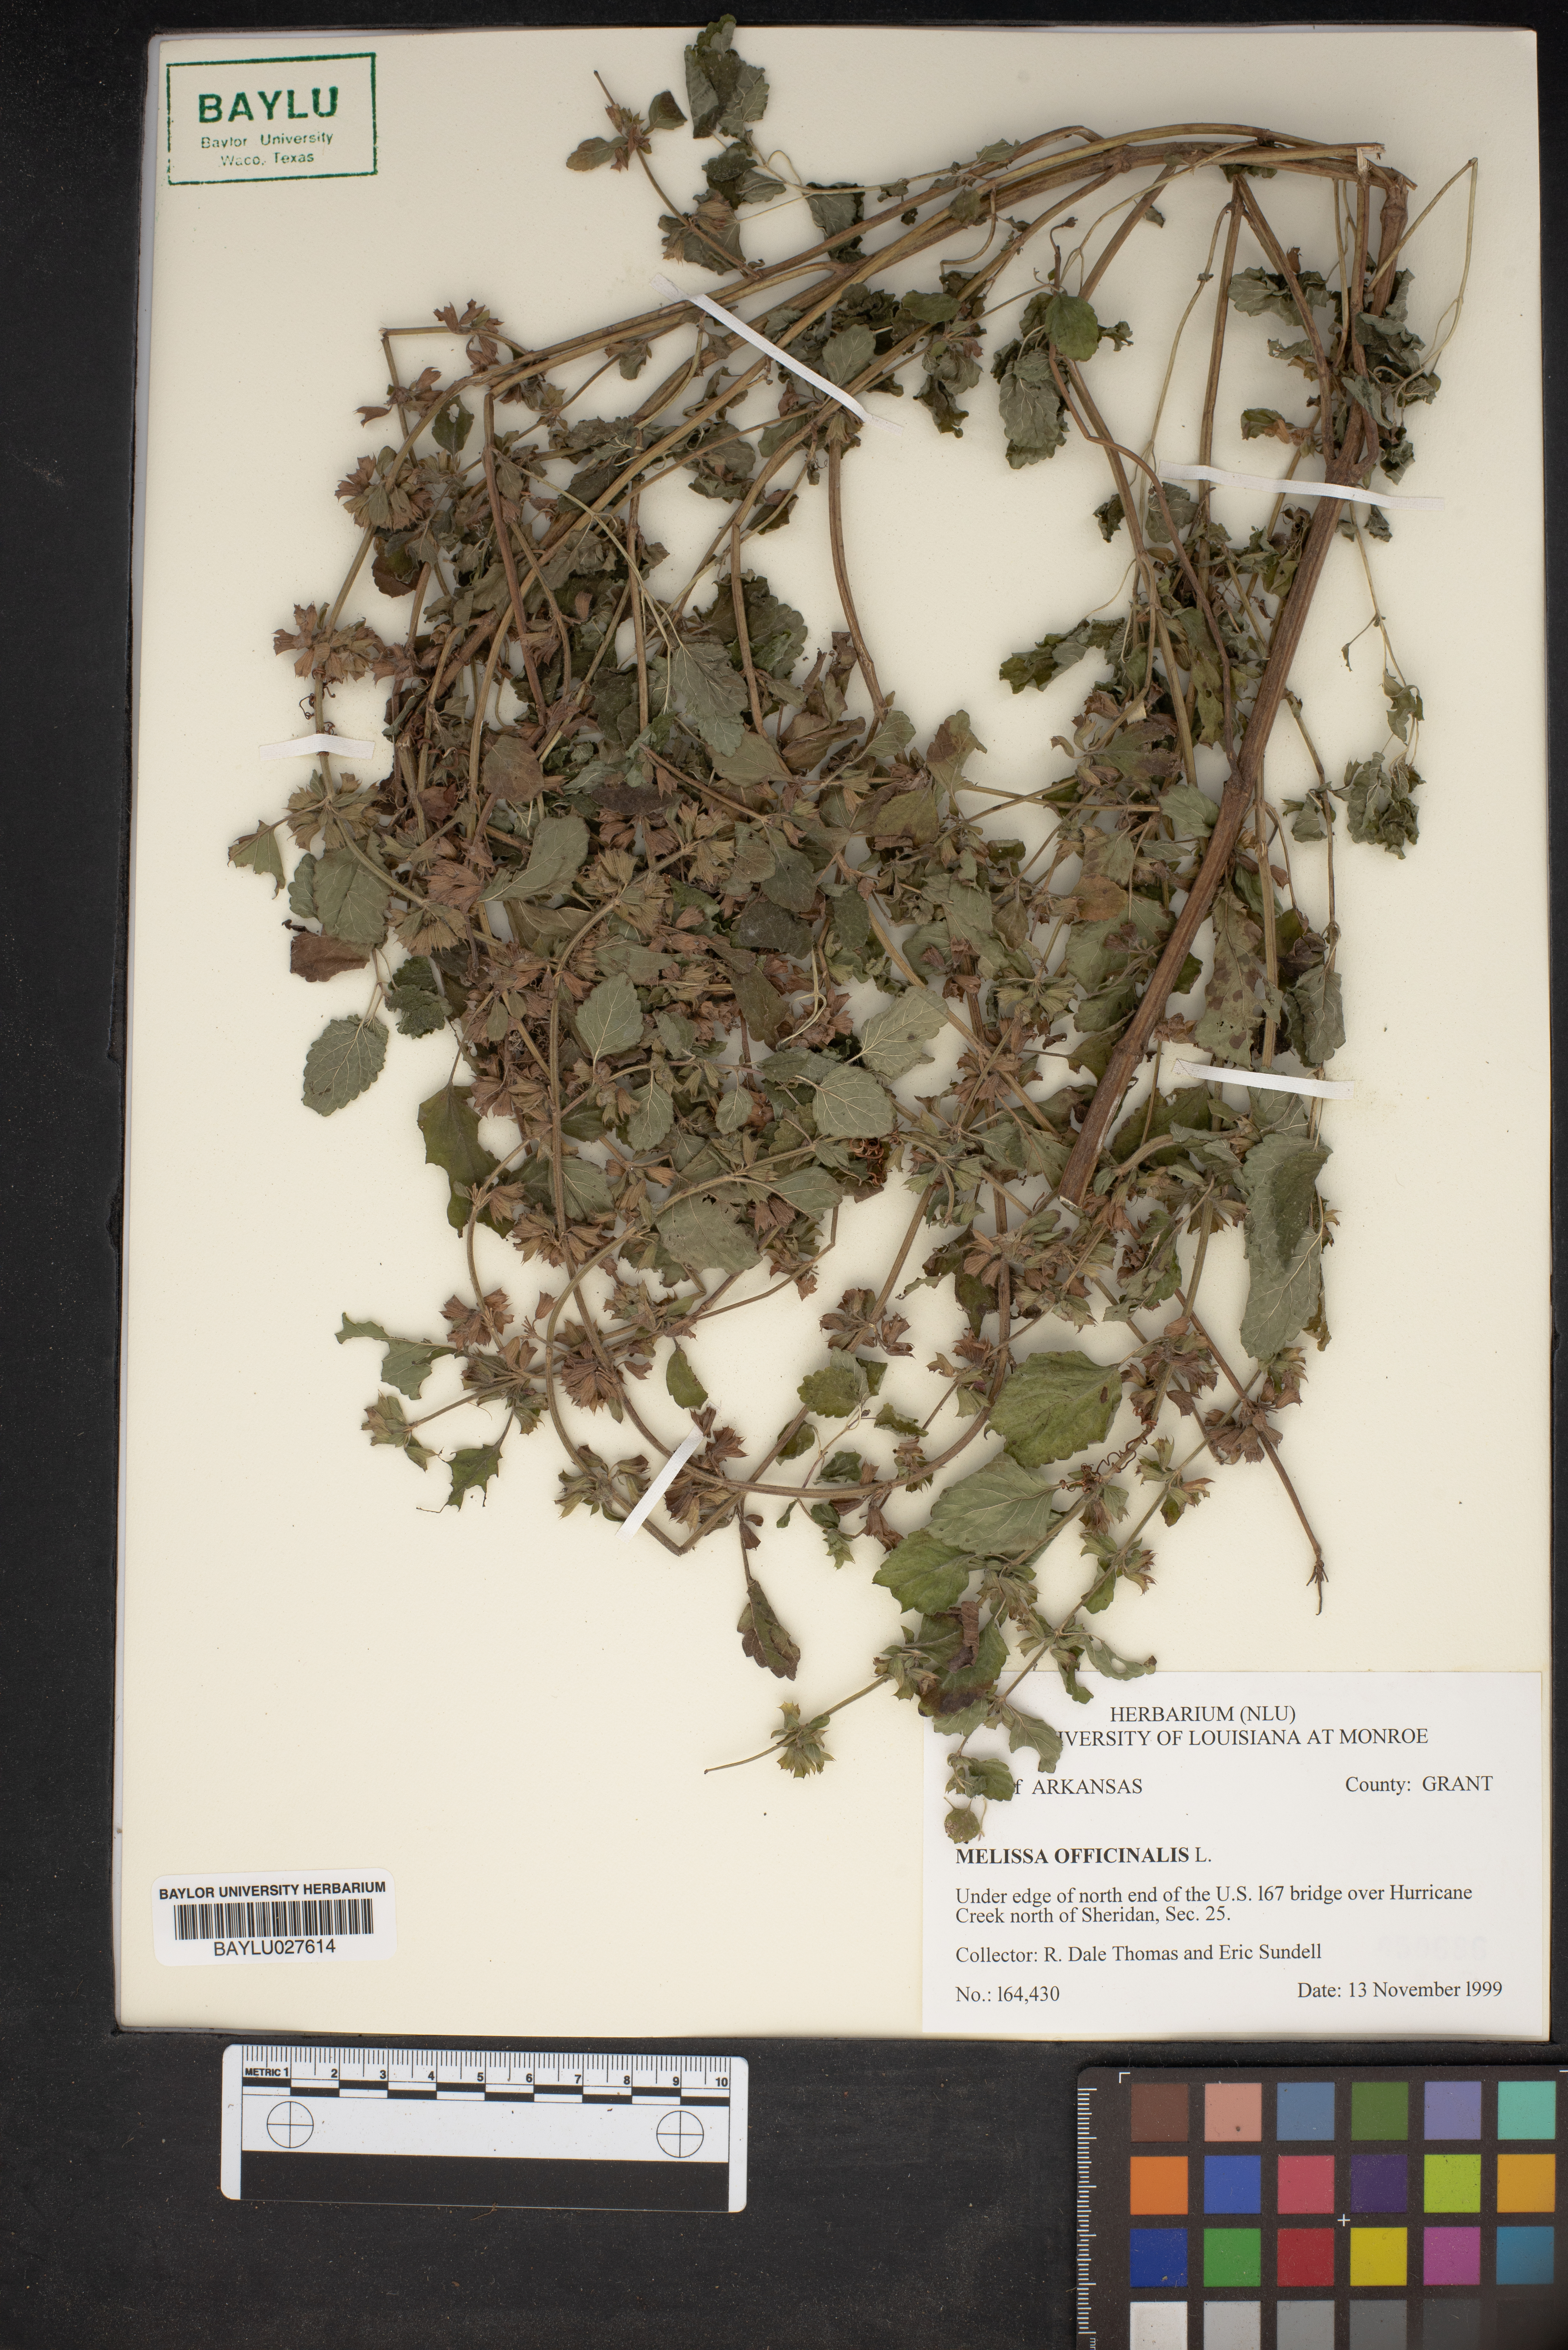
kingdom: Plantae
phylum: Tracheophyta
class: Magnoliopsida
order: Lamiales
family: Lamiaceae
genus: Melissa
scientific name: Melissa officinalis
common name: Balm
